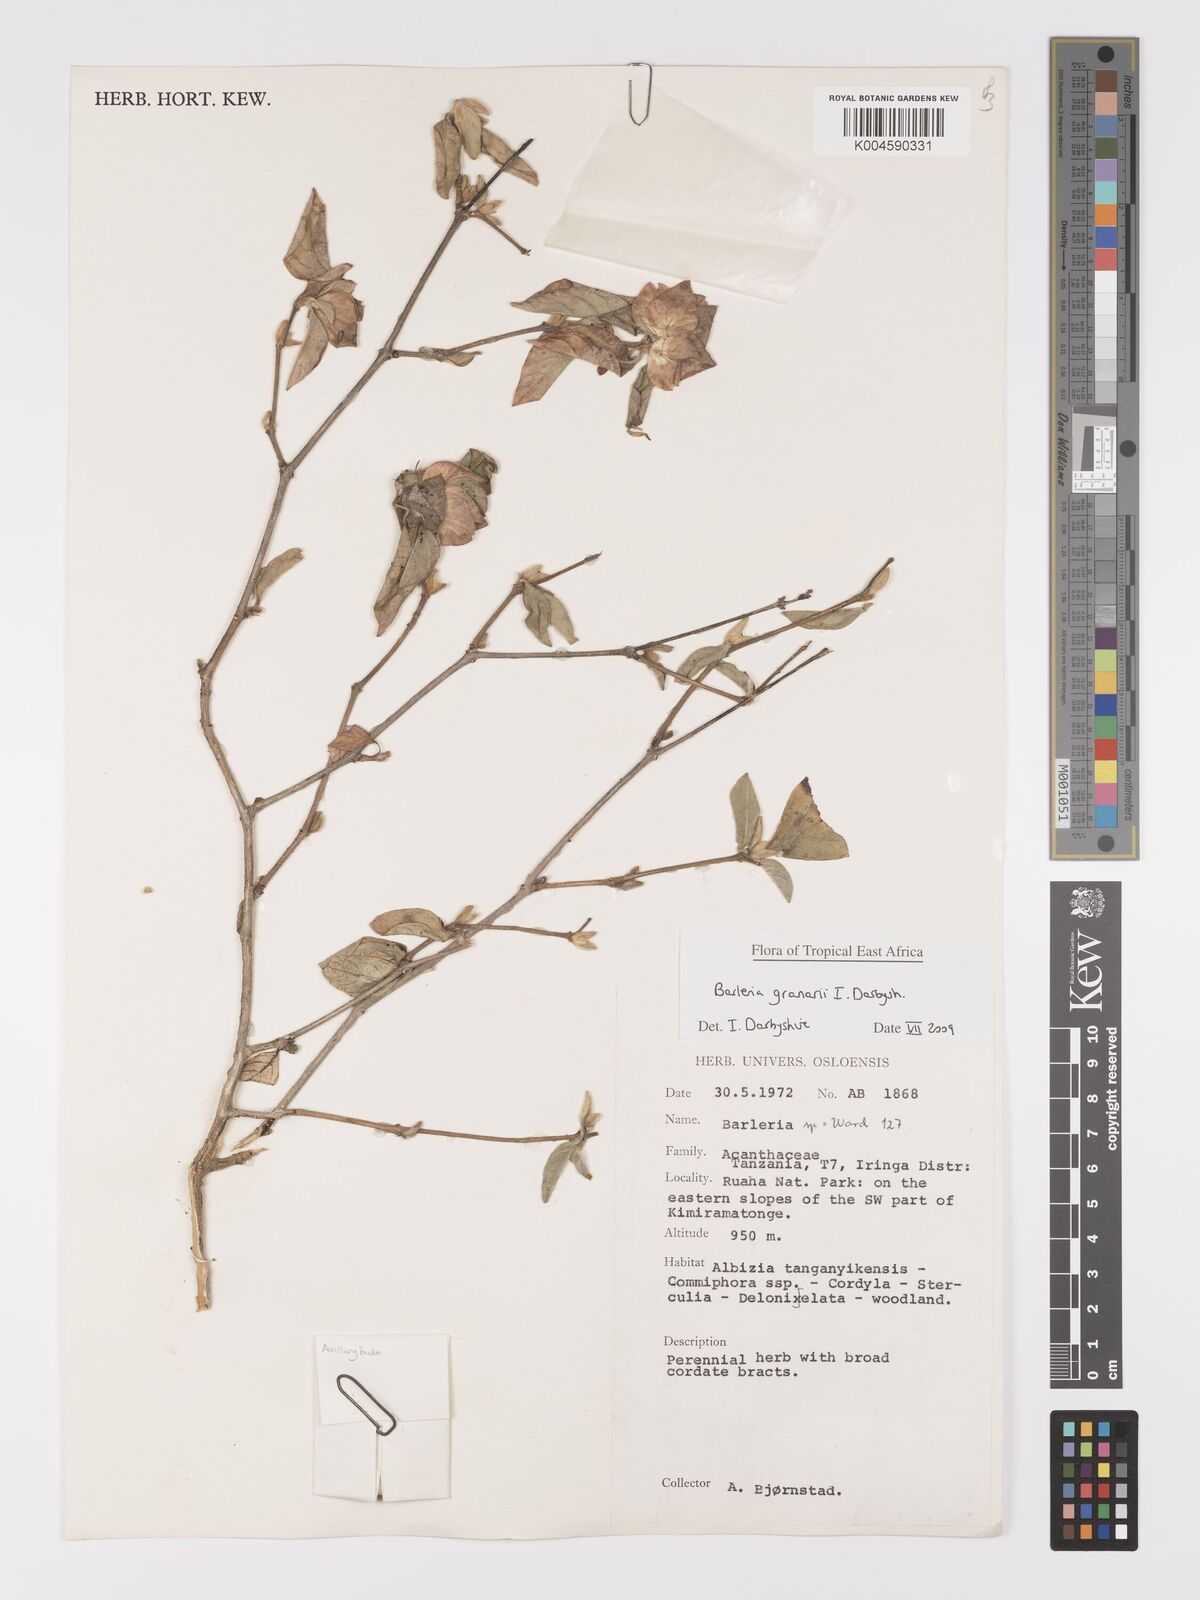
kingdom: Plantae
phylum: Tracheophyta
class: Magnoliopsida
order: Lamiales
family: Acanthaceae
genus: Barleria
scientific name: Barleria granarii
